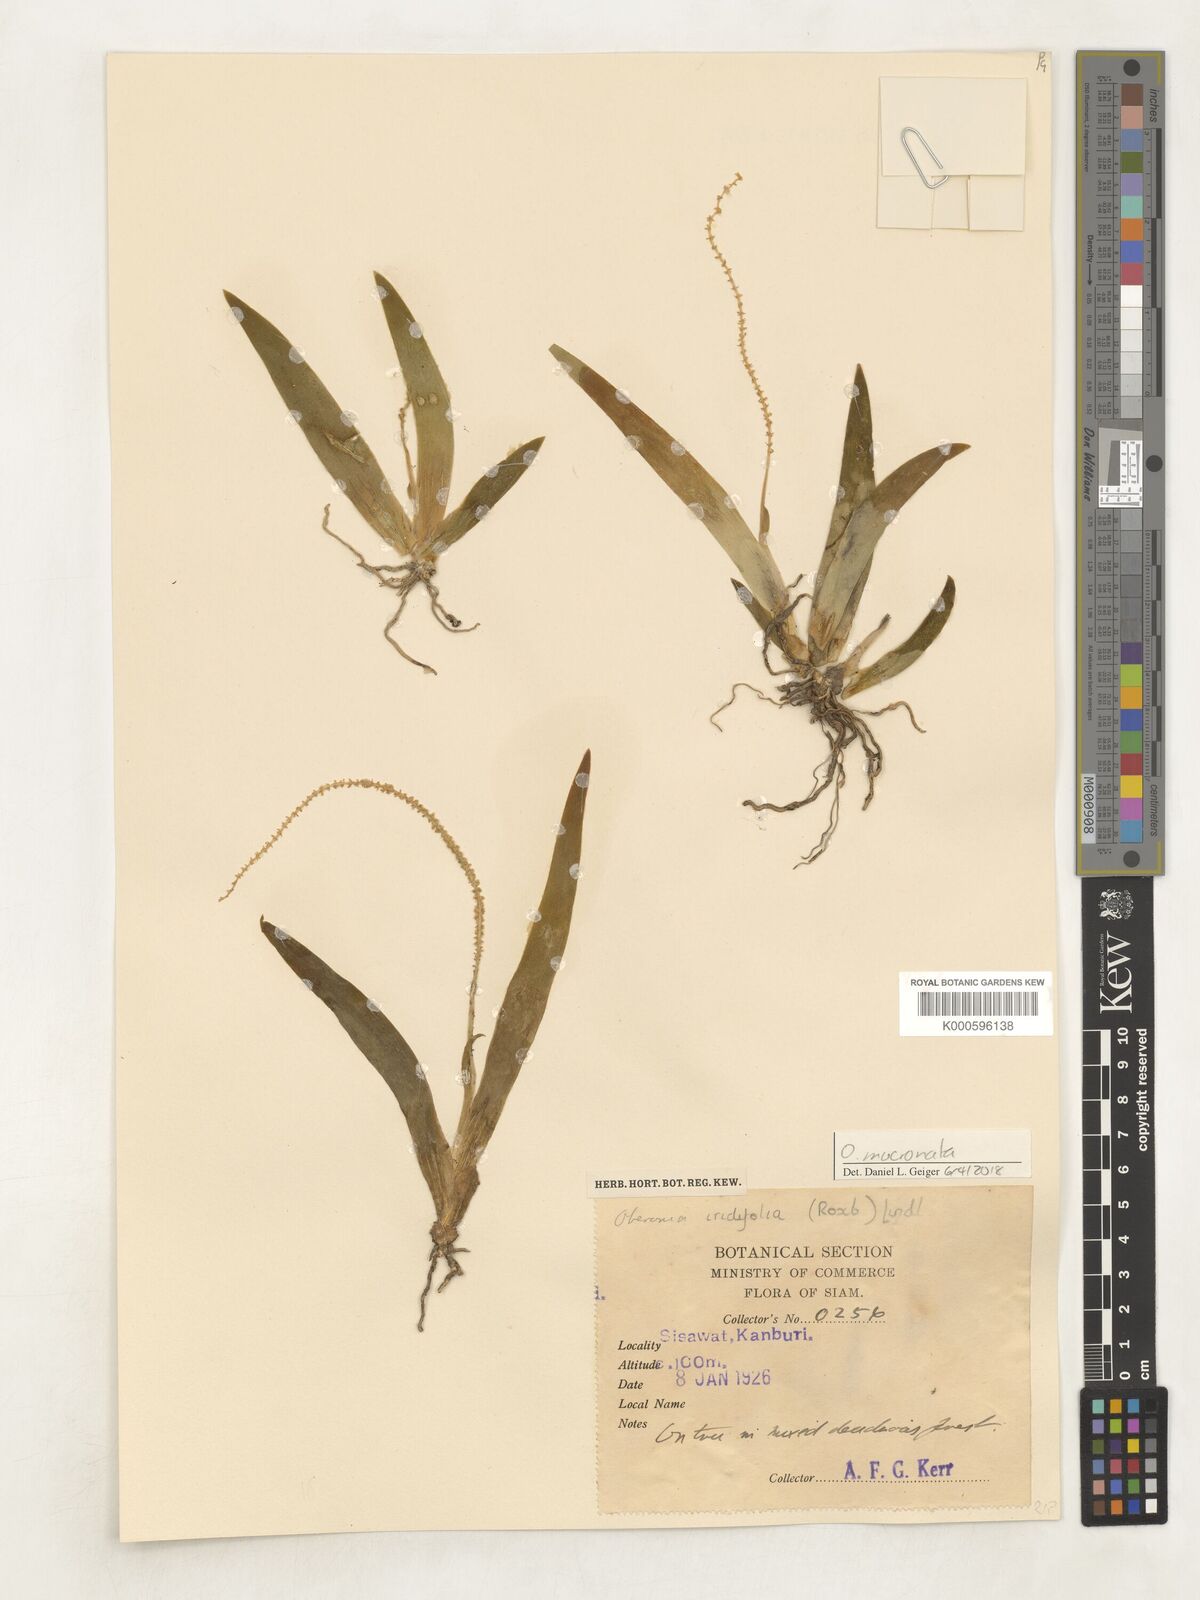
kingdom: Plantae
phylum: Tracheophyta
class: Liliopsida
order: Asparagales
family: Orchidaceae
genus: Oberonia
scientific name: Oberonia mucronata
